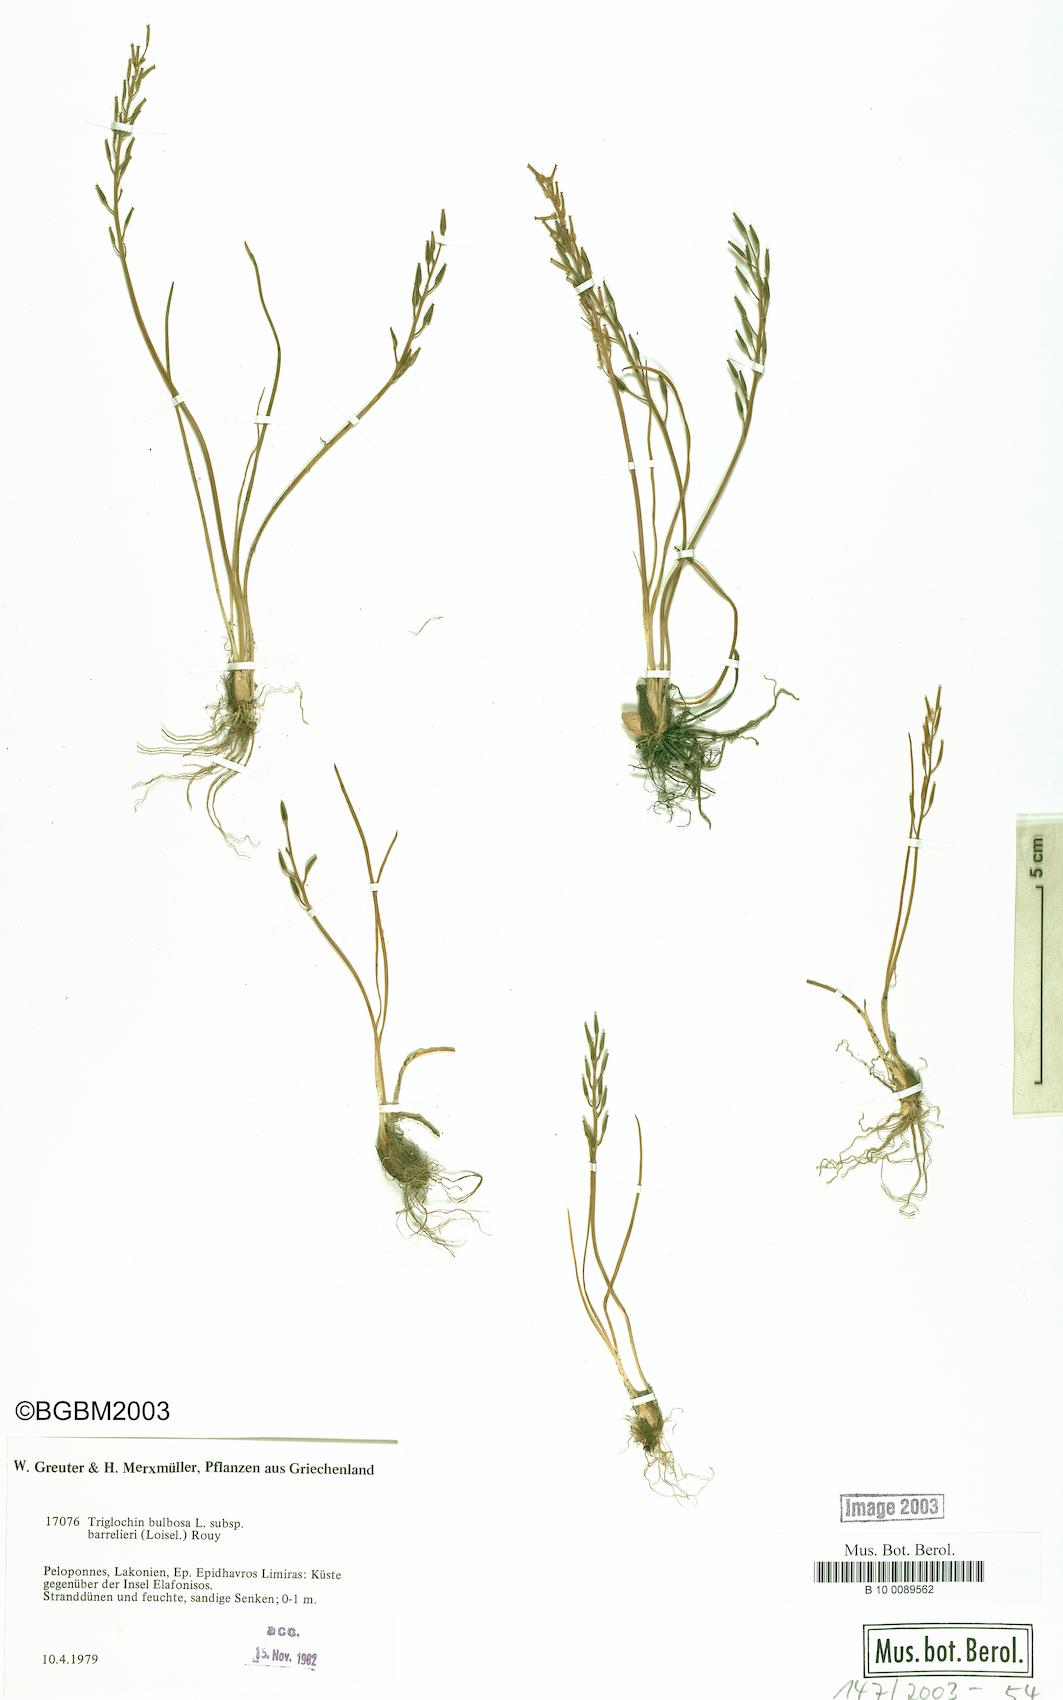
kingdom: Plantae
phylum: Tracheophyta
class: Liliopsida
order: Alismatales
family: Juncaginaceae
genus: Triglochin
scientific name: Triglochin barrelieri
